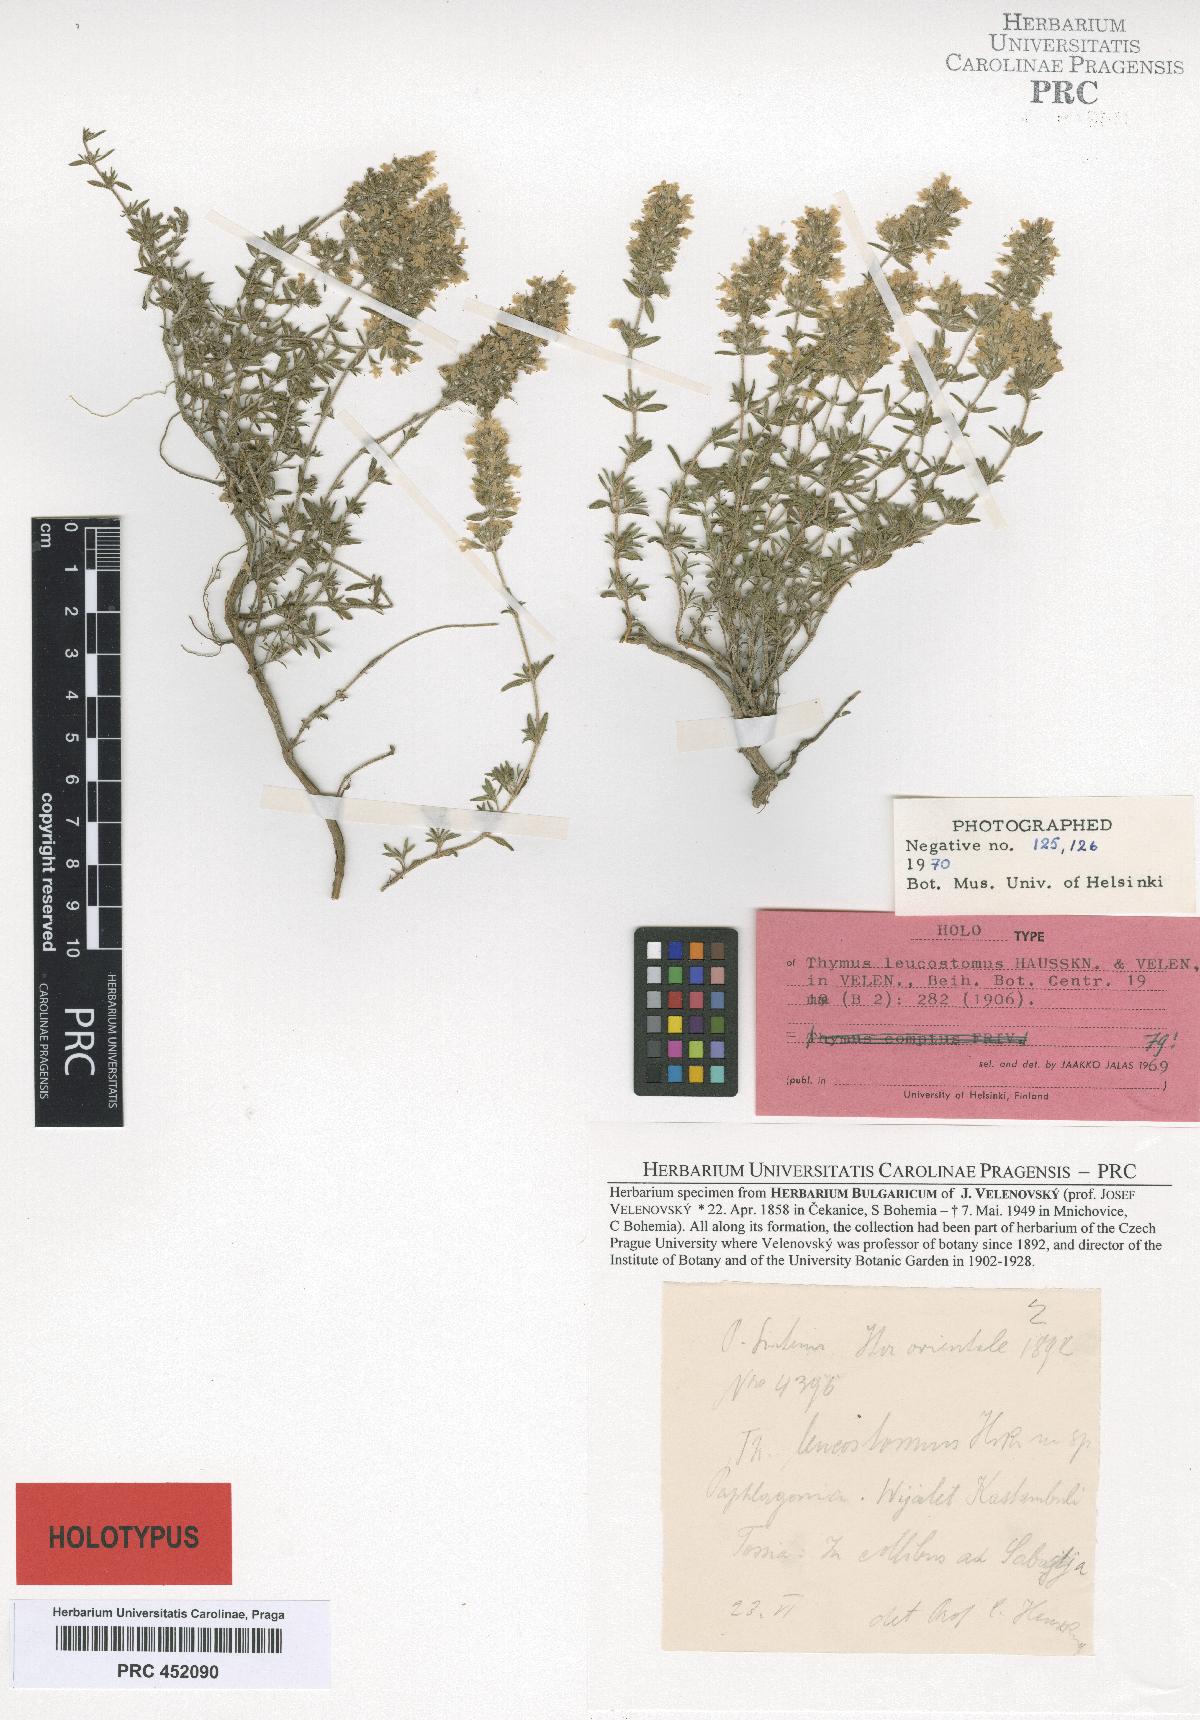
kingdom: Plantae
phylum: Tracheophyta
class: Magnoliopsida
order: Lamiales
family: Lamiaceae
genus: Thymus
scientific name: Thymus leucostomus
